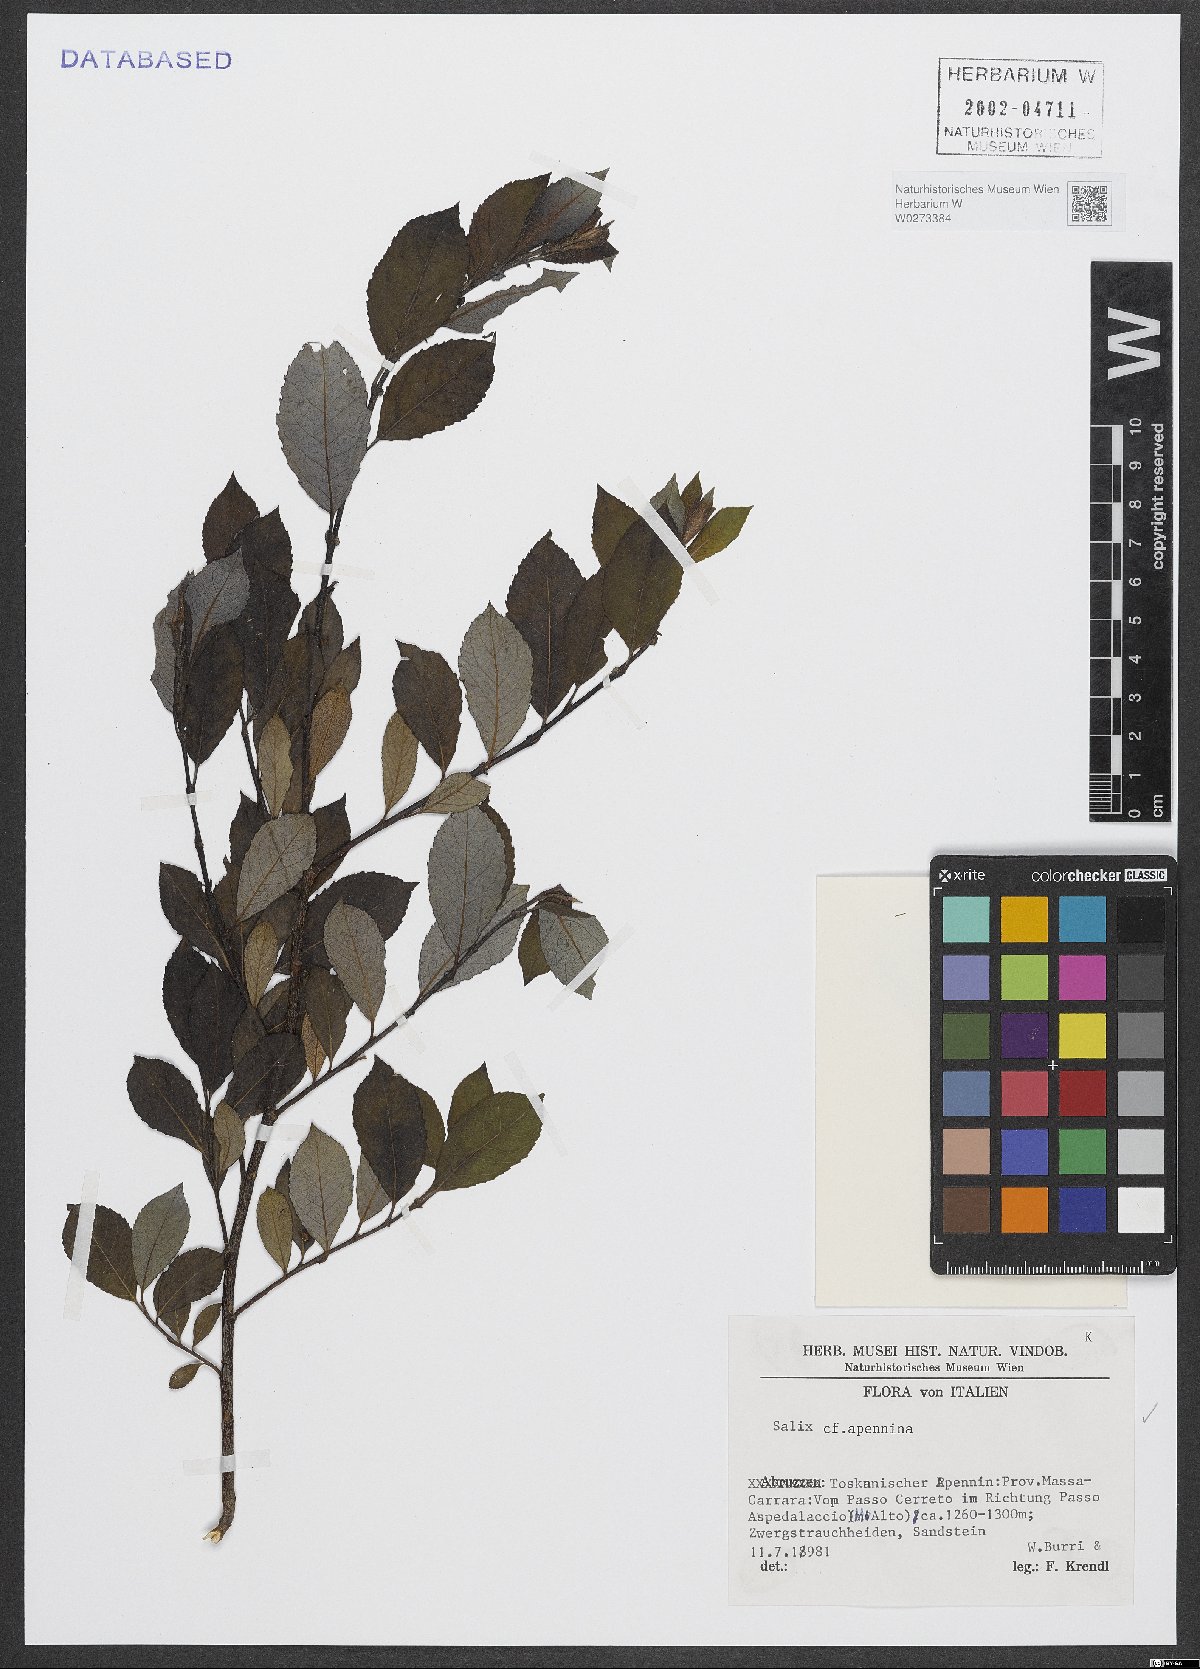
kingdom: Plantae
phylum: Tracheophyta
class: Magnoliopsida
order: Malpighiales
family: Salicaceae
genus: Salix
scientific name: Salix apennina
